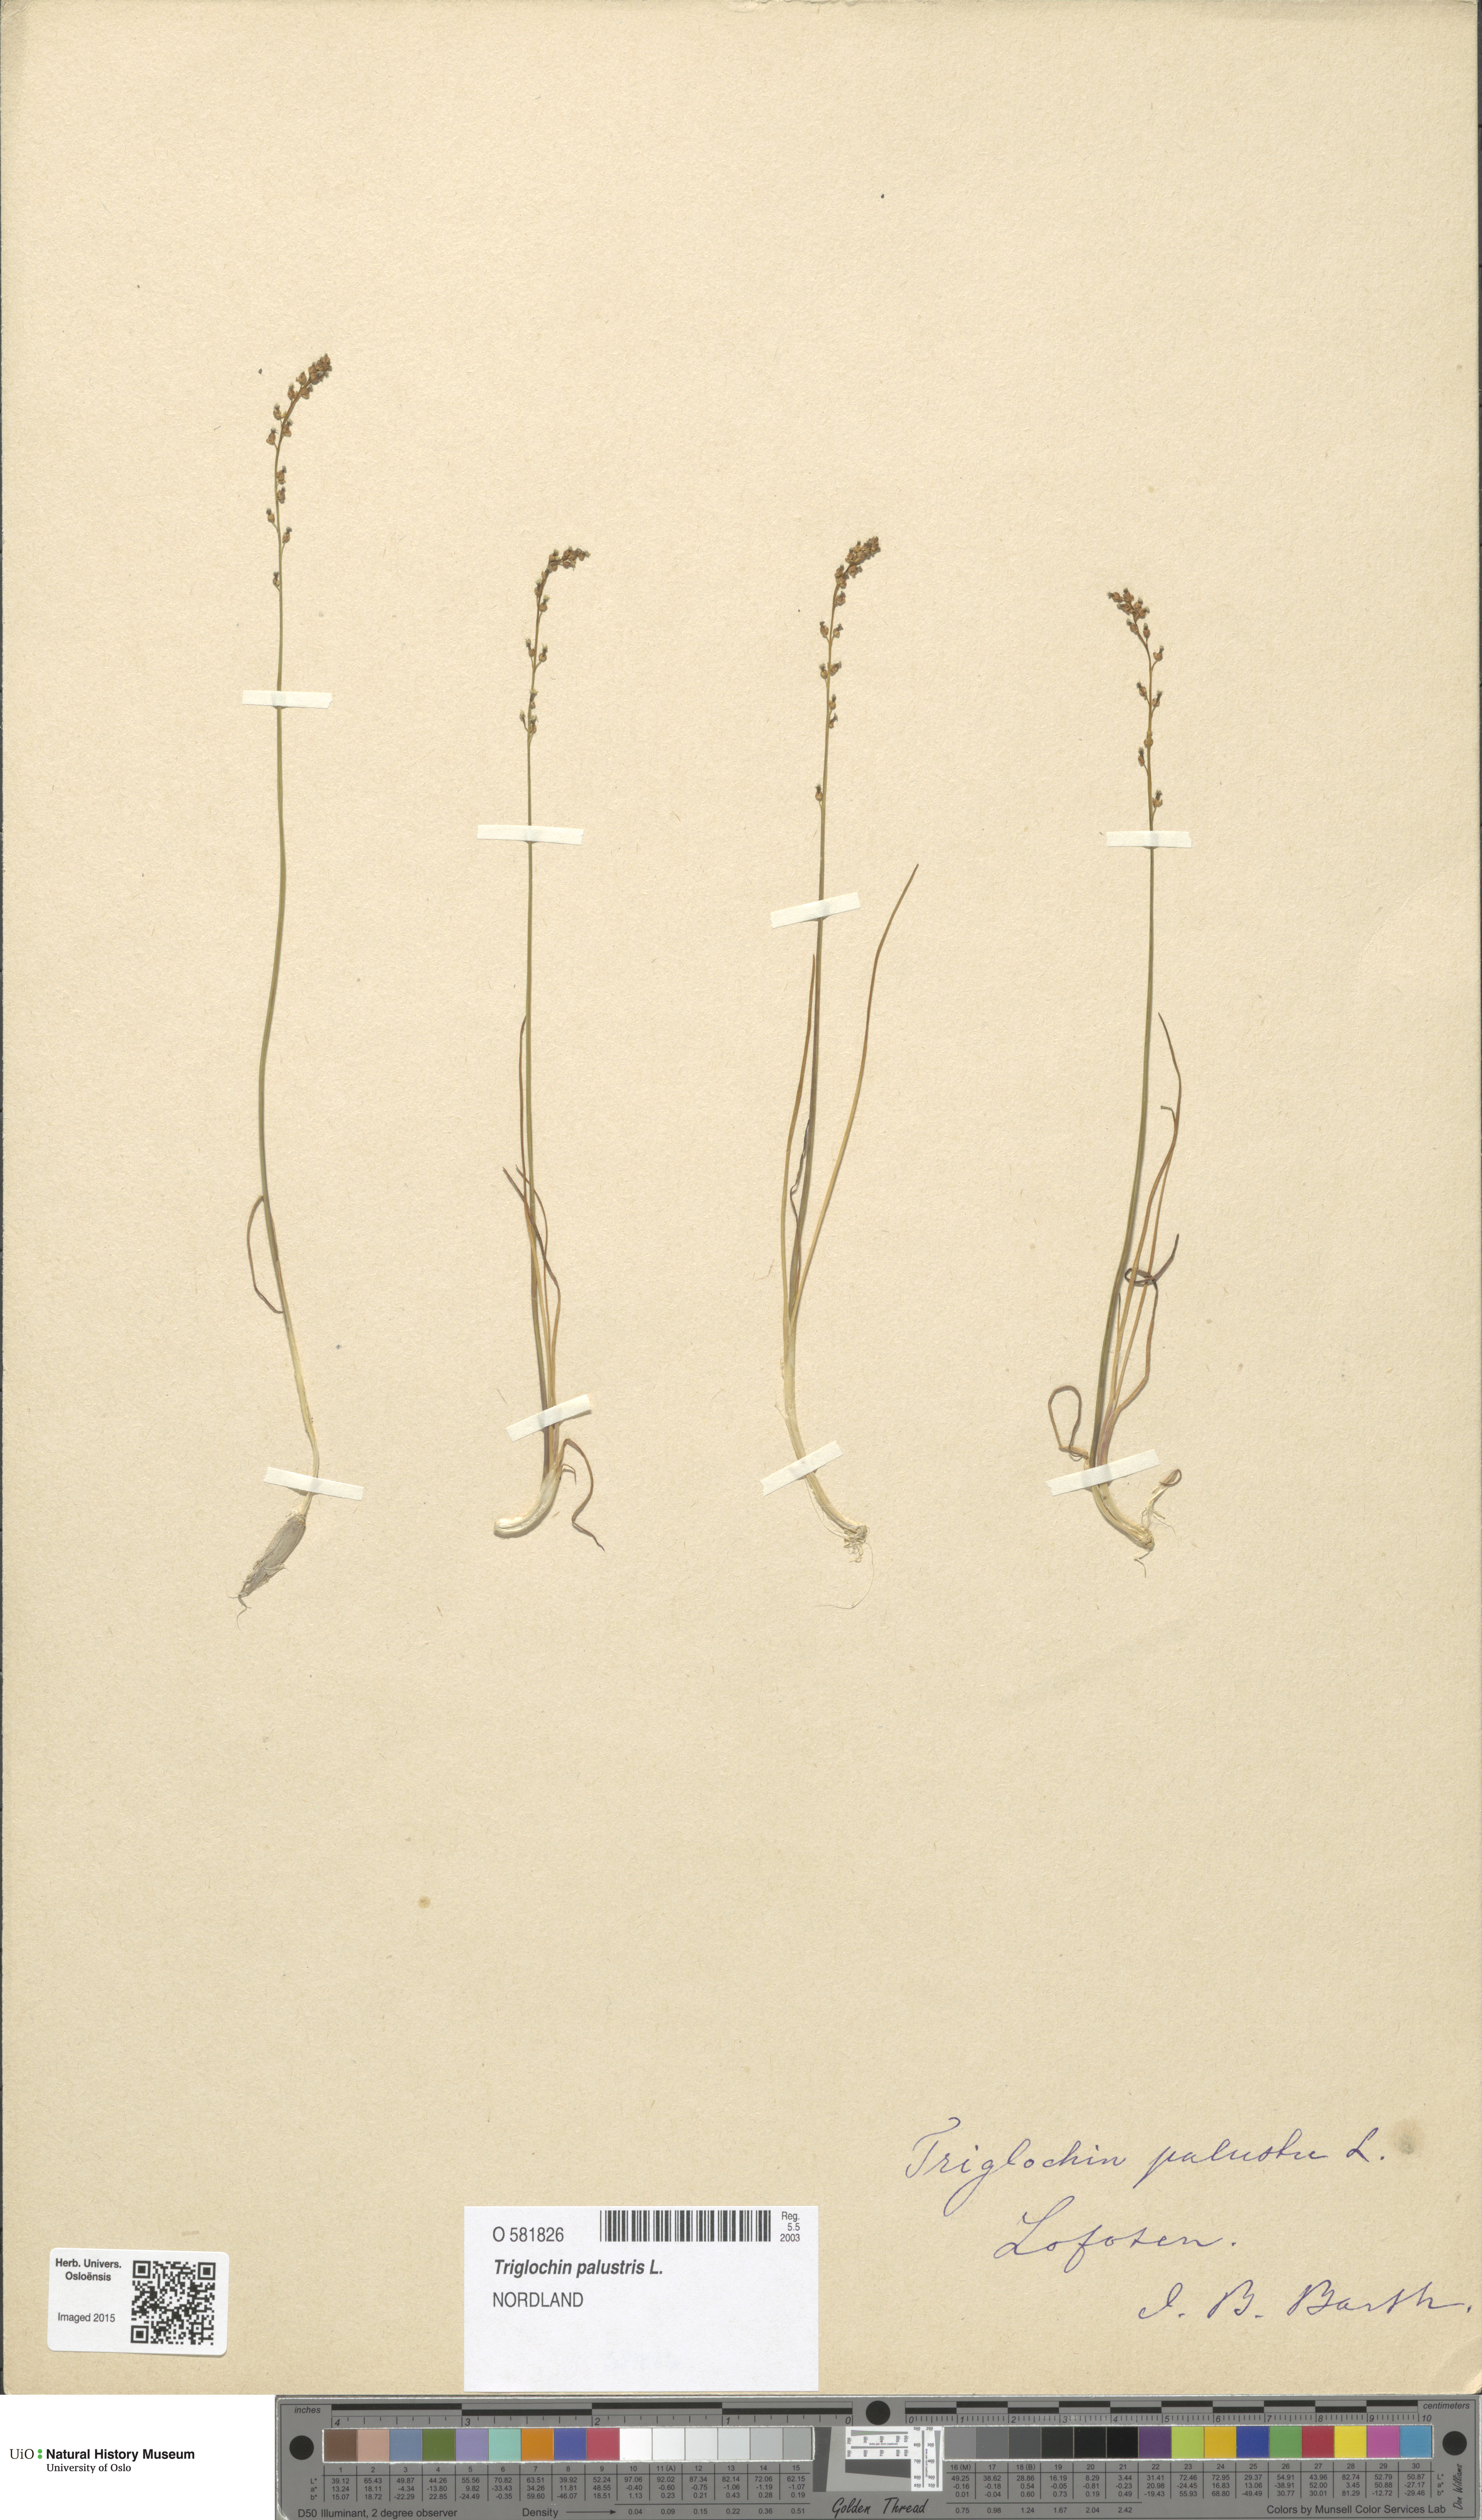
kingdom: Plantae
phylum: Tracheophyta
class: Liliopsida
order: Alismatales
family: Juncaginaceae
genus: Triglochin
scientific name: Triglochin palustris
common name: Marsh arrowgrass
